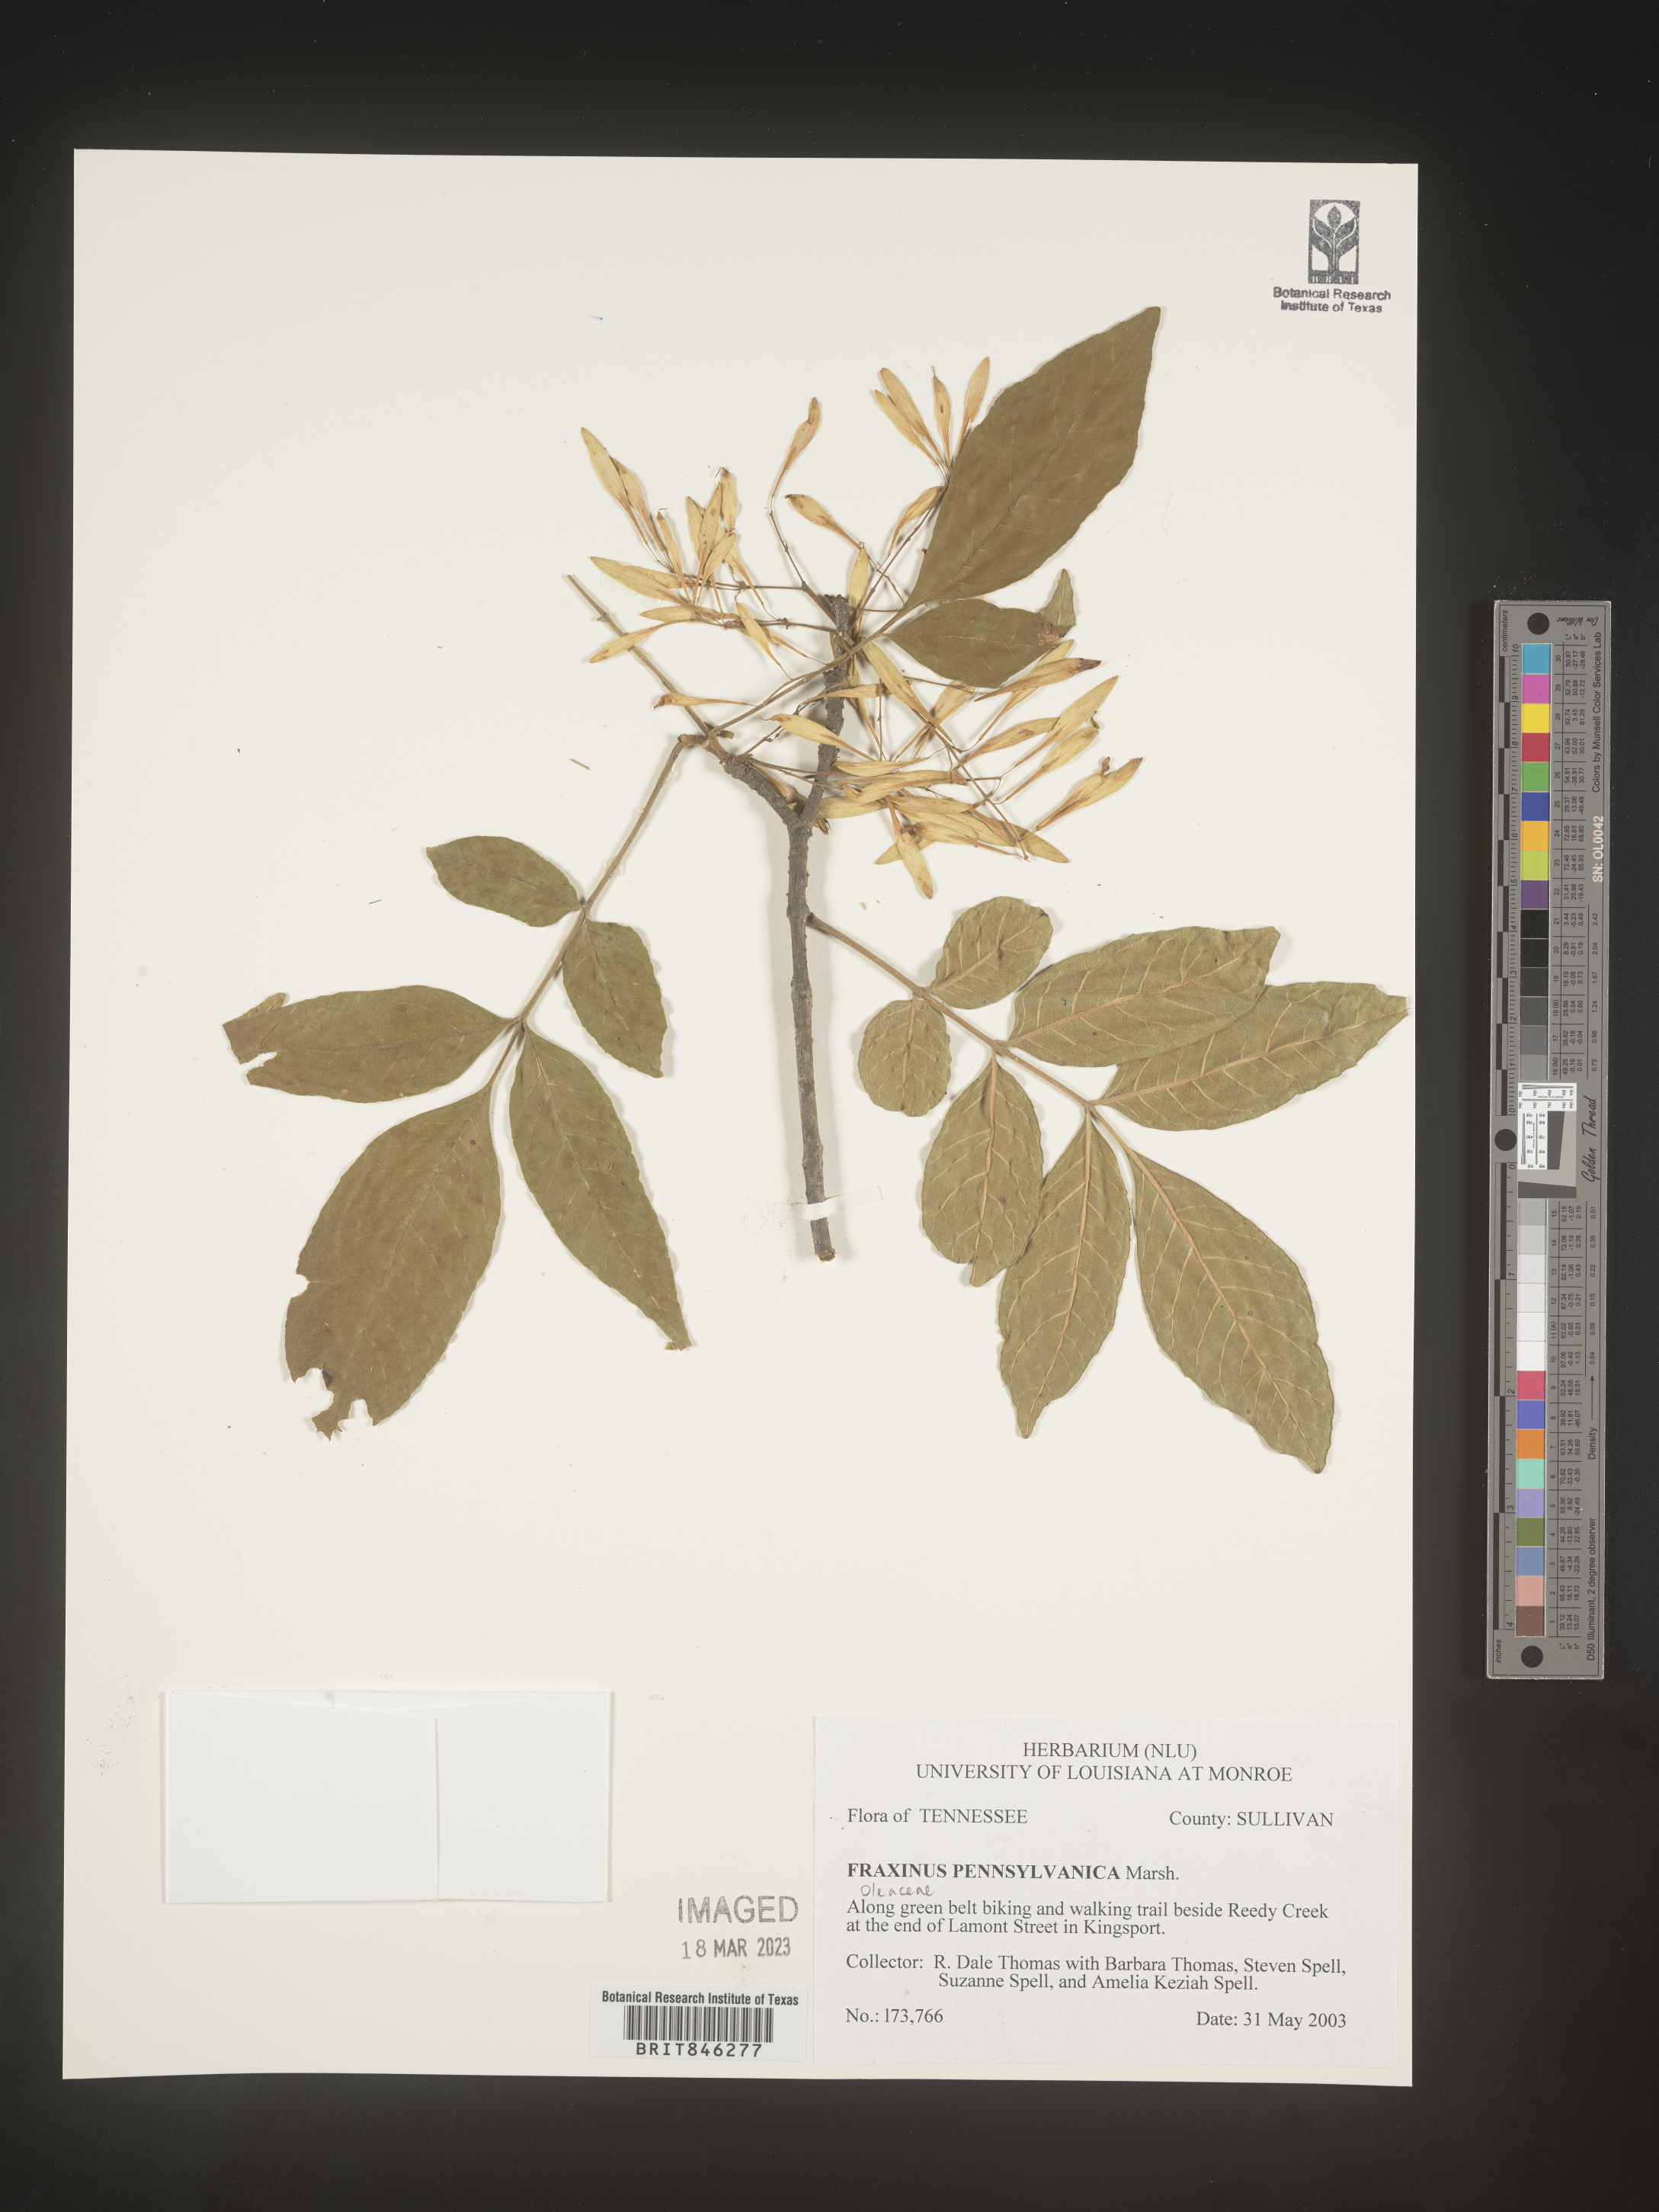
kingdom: Plantae
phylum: Tracheophyta
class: Magnoliopsida
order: Lamiales
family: Oleaceae
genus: Fraxinus
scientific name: Fraxinus pennsylvanica
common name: Green ash
